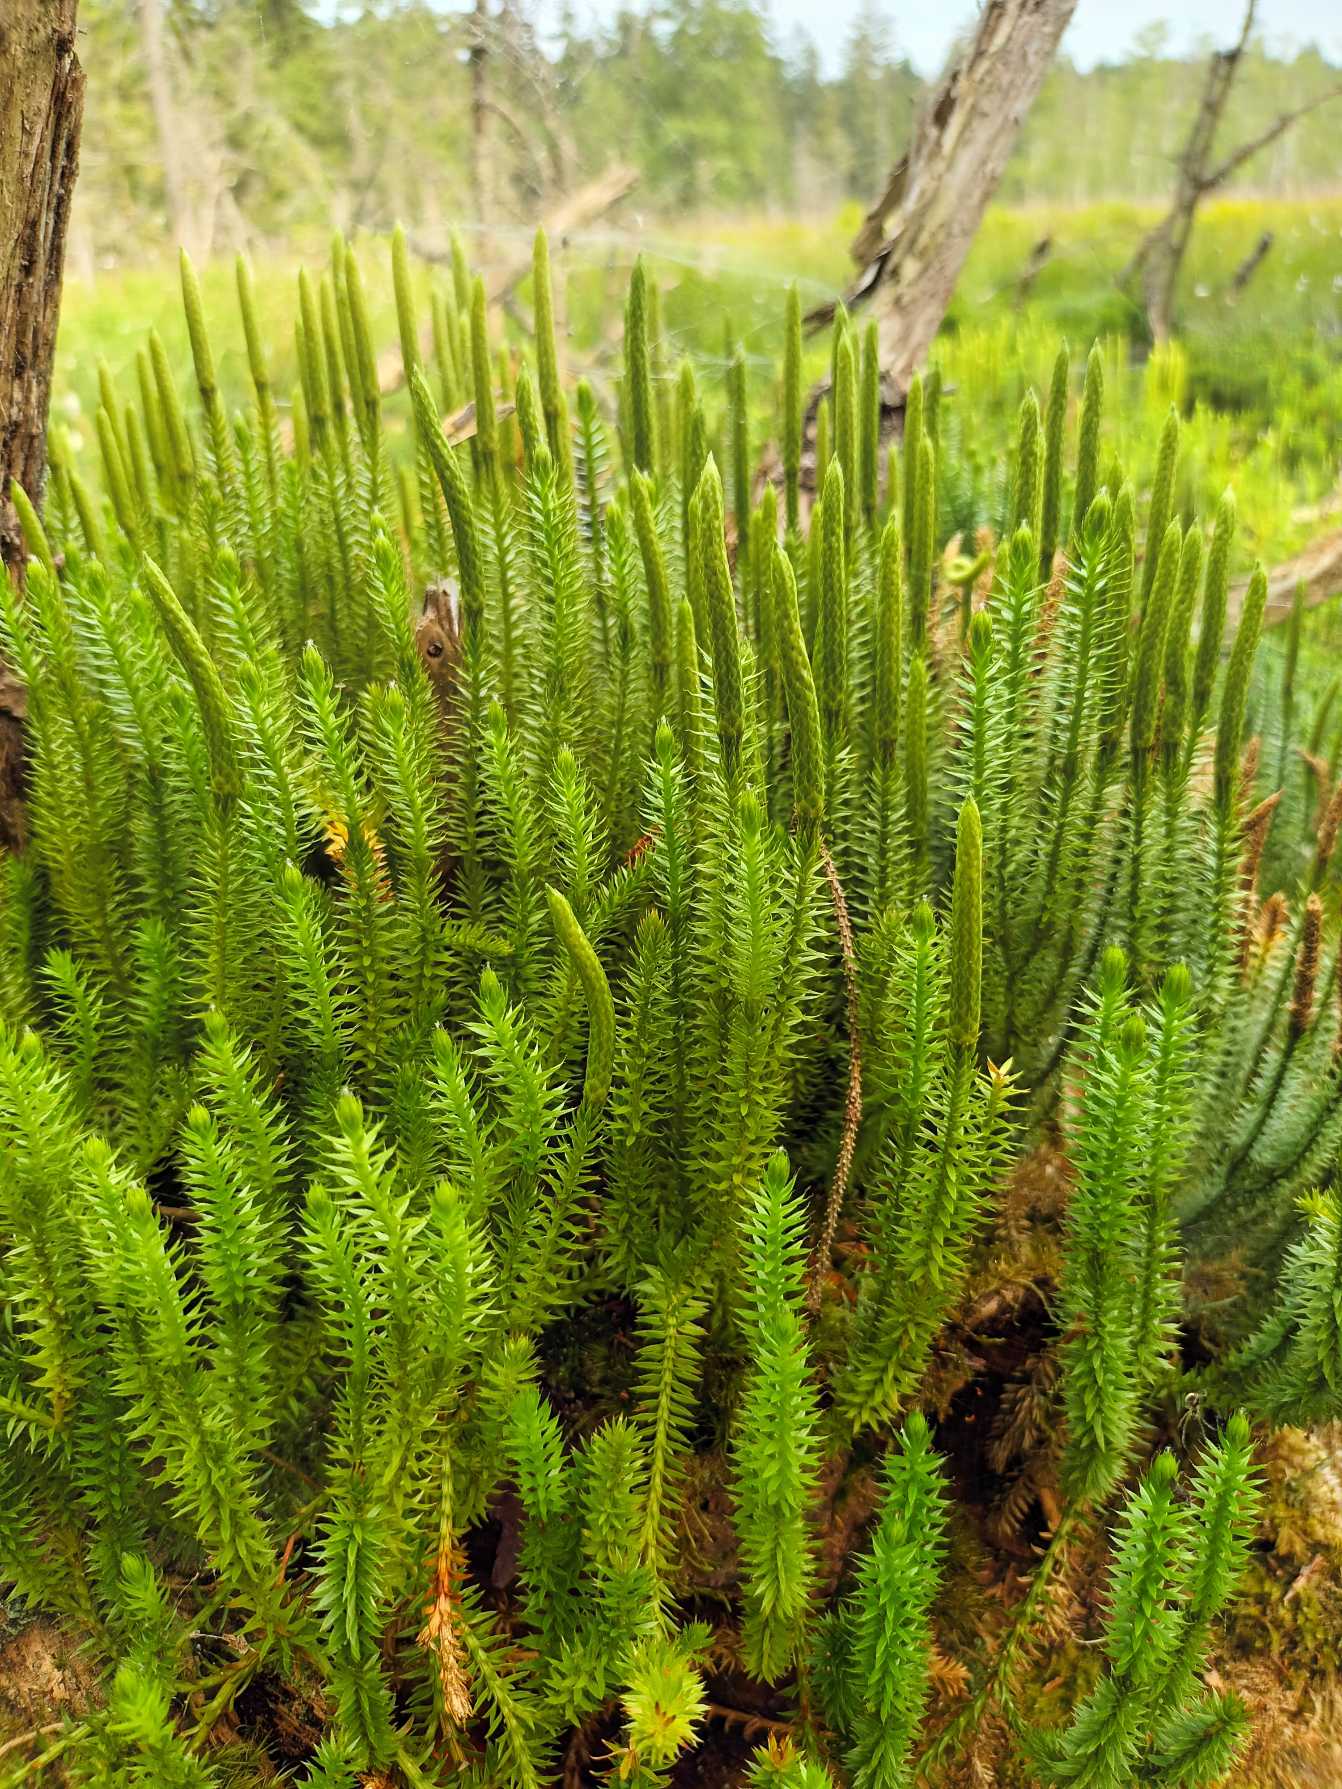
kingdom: Plantae
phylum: Tracheophyta
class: Lycopodiopsida
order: Lycopodiales
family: Lycopodiaceae
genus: Spinulum
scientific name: Spinulum annotinum
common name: Femradet ulvefod
